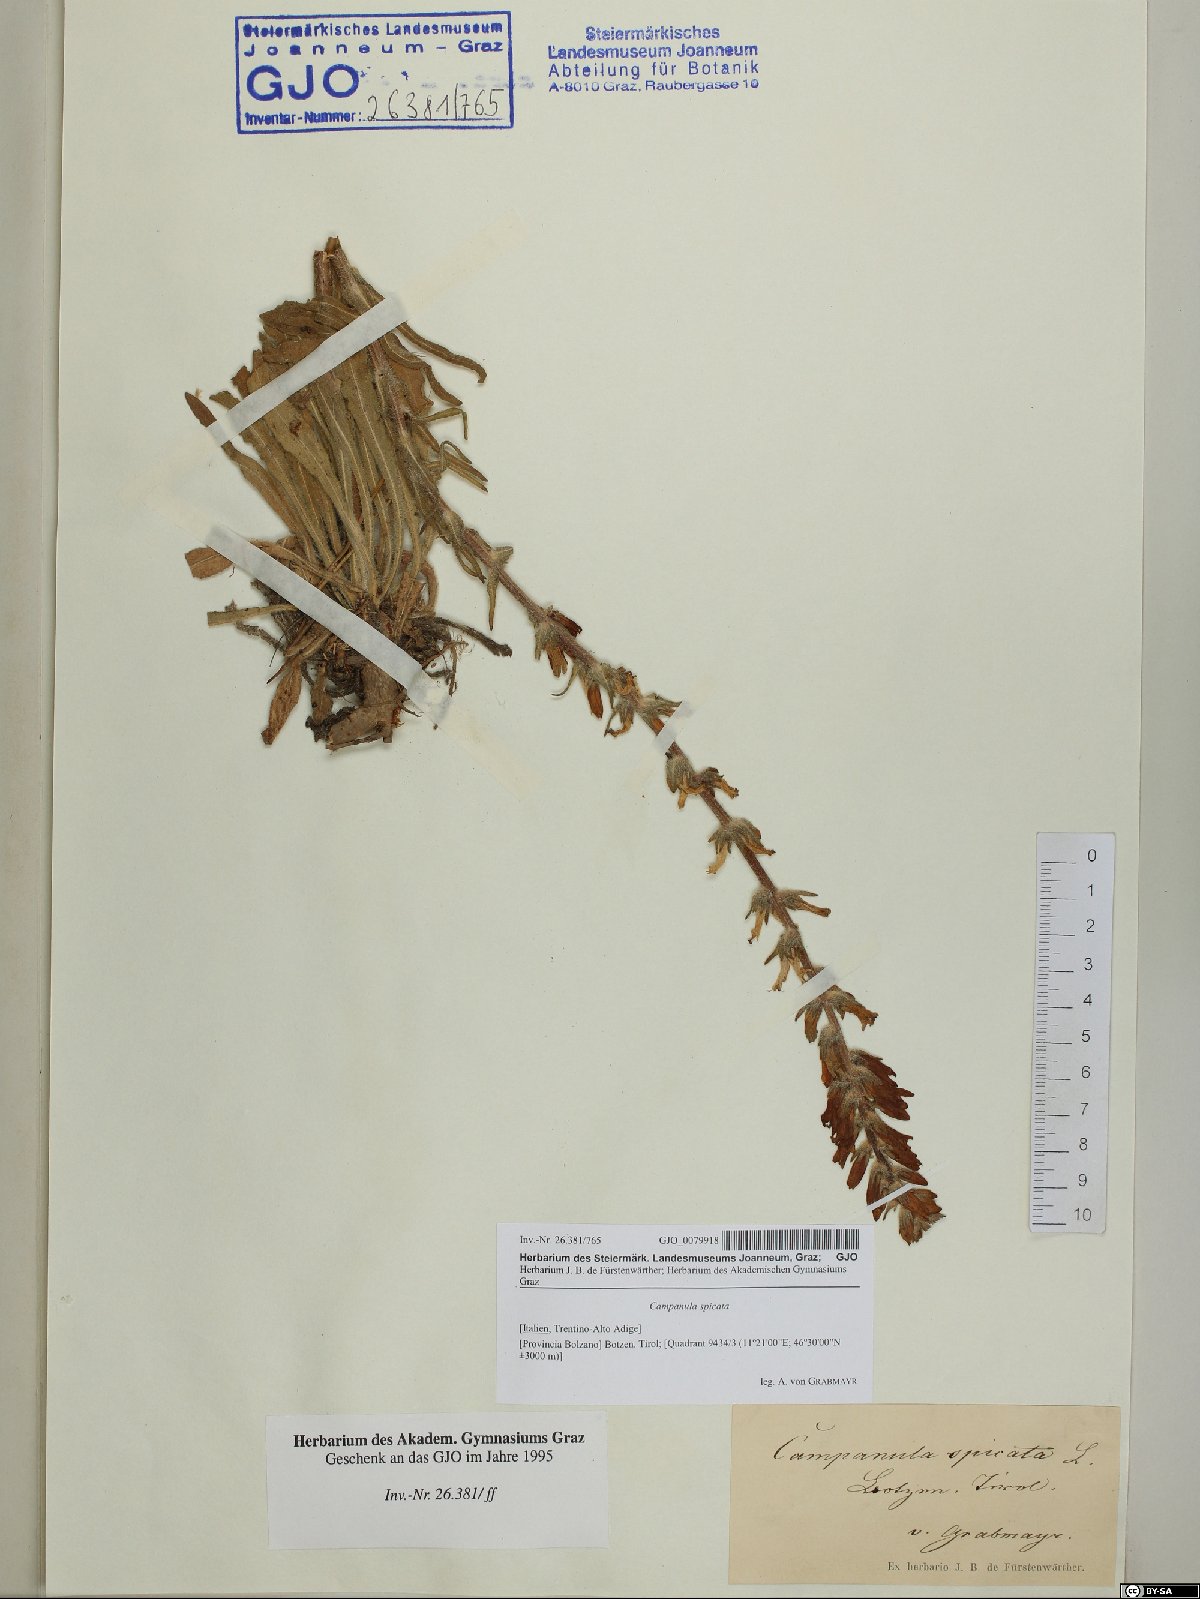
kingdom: Plantae
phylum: Tracheophyta
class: Magnoliopsida
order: Asterales
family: Campanulaceae
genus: Campanula
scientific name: Campanula spicata
